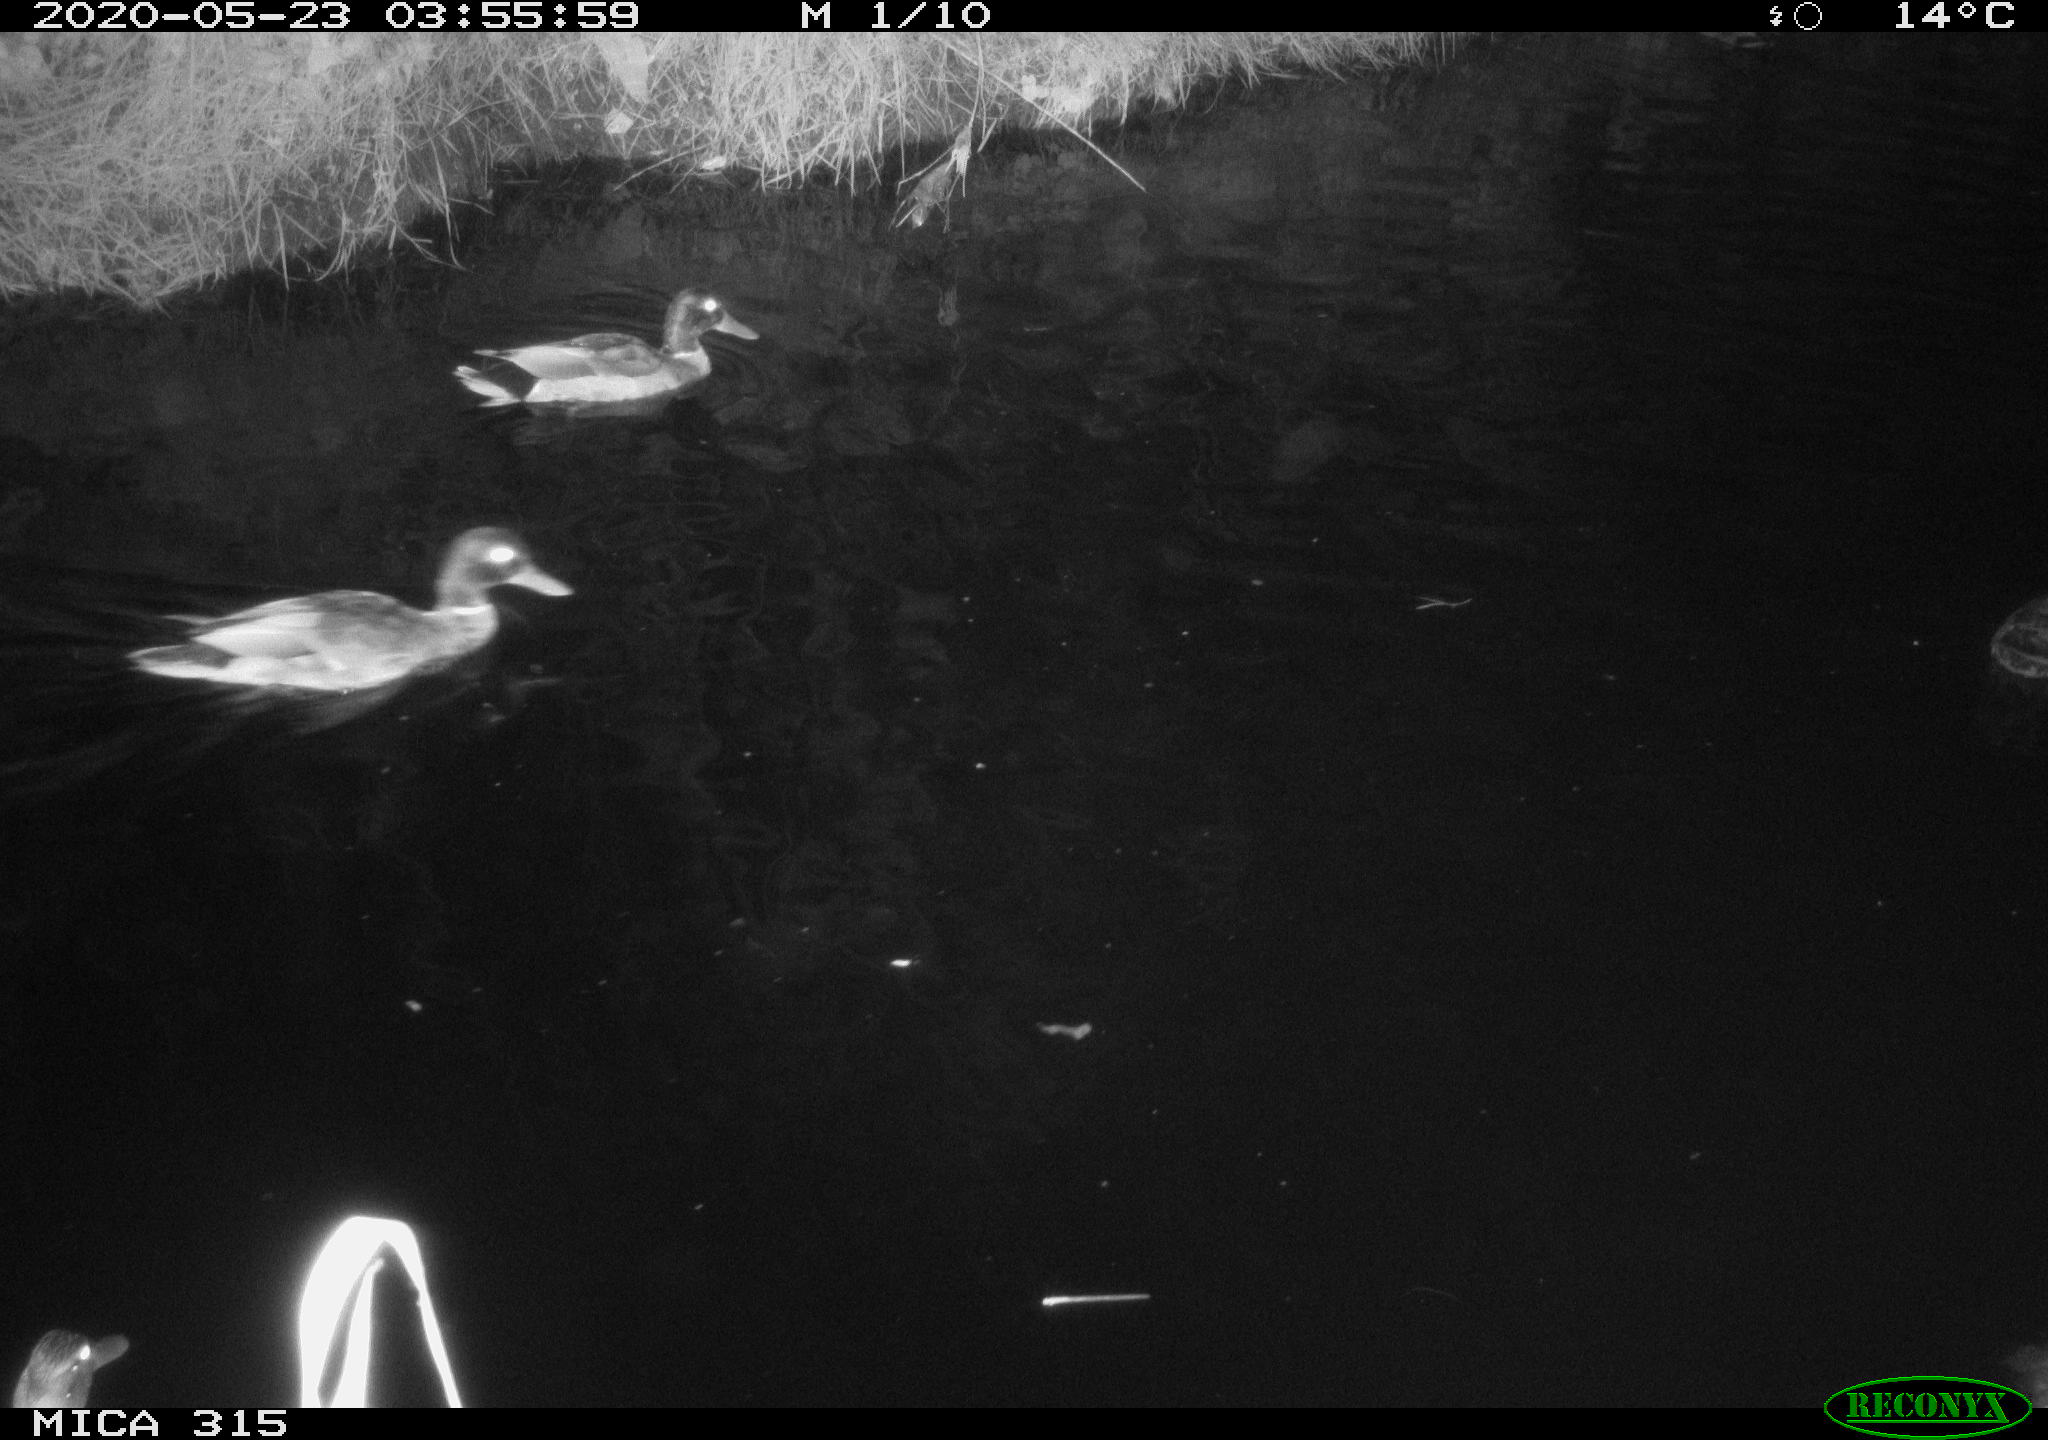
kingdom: Animalia
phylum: Chordata
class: Aves
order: Anseriformes
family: Anatidae
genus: Anas
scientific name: Anas platyrhynchos
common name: Mallard
